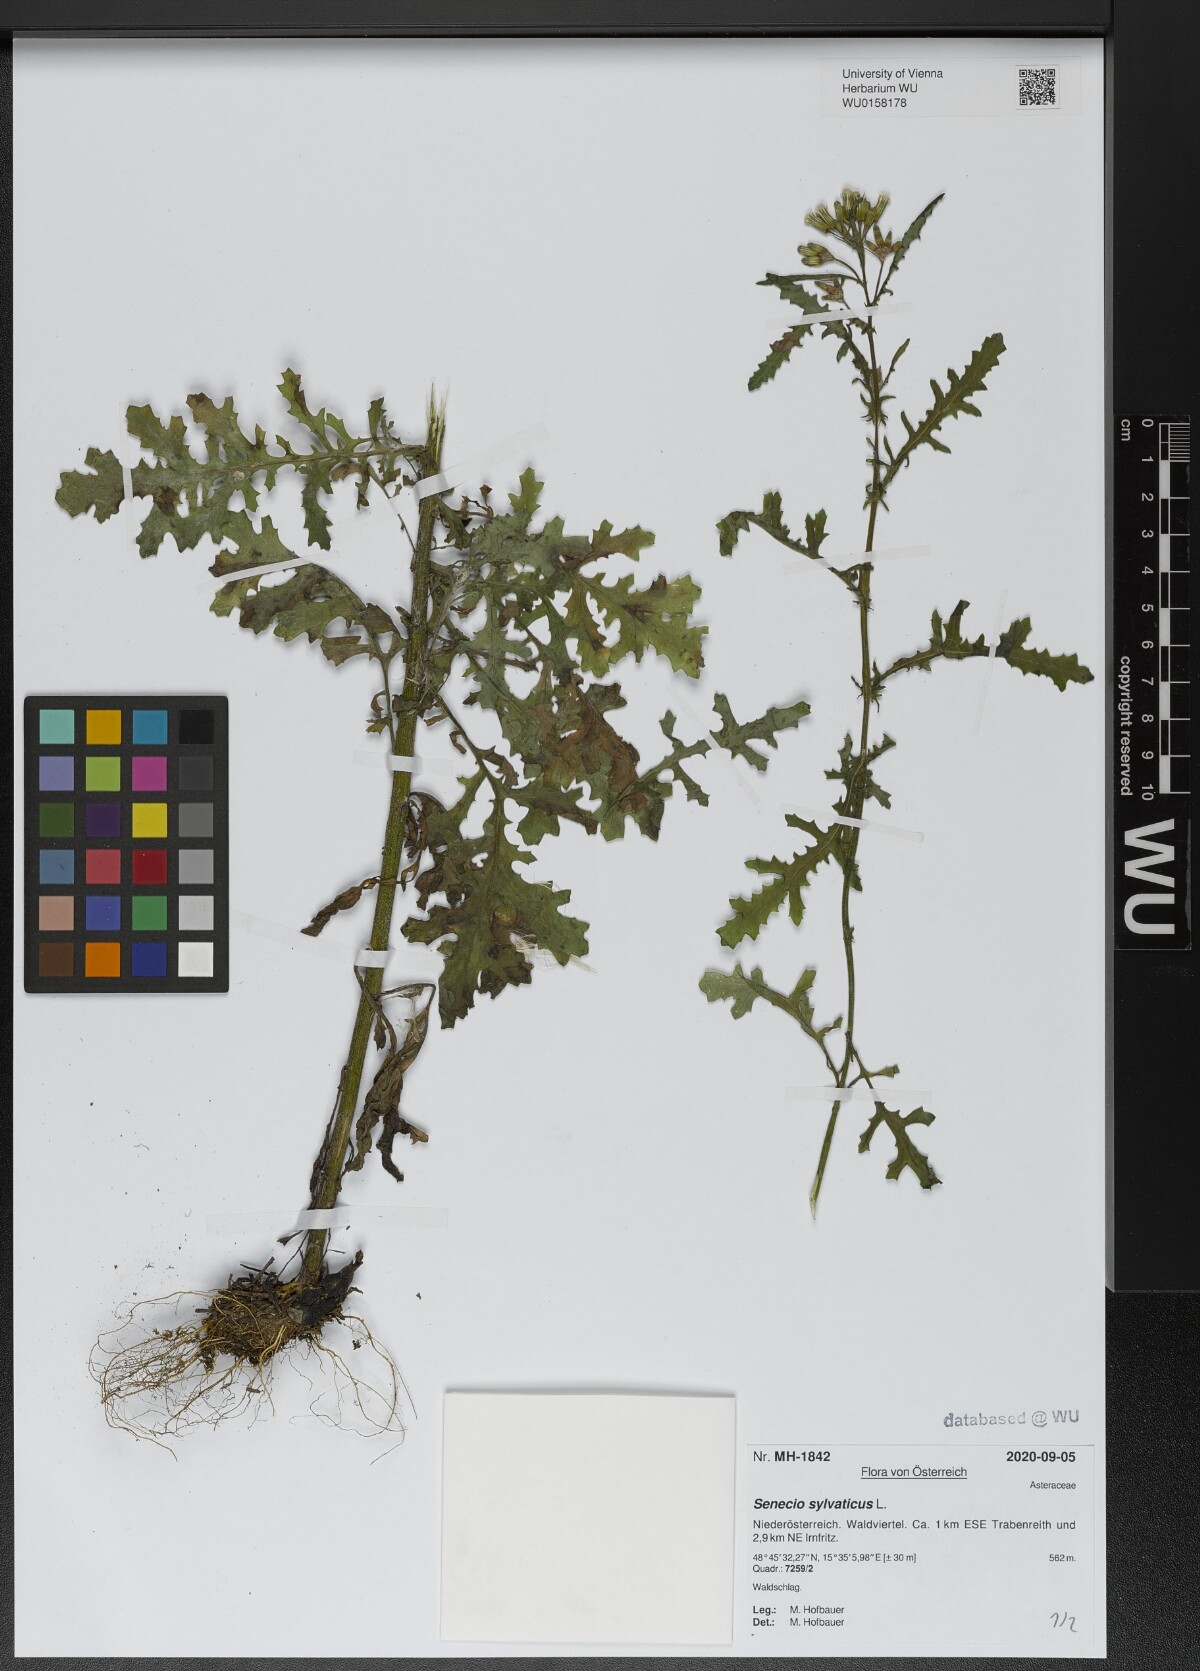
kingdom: Plantae
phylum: Tracheophyta
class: Magnoliopsida
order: Asterales
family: Asteraceae
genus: Senecio
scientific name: Senecio sylvaticus
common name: Woodland ragwort
